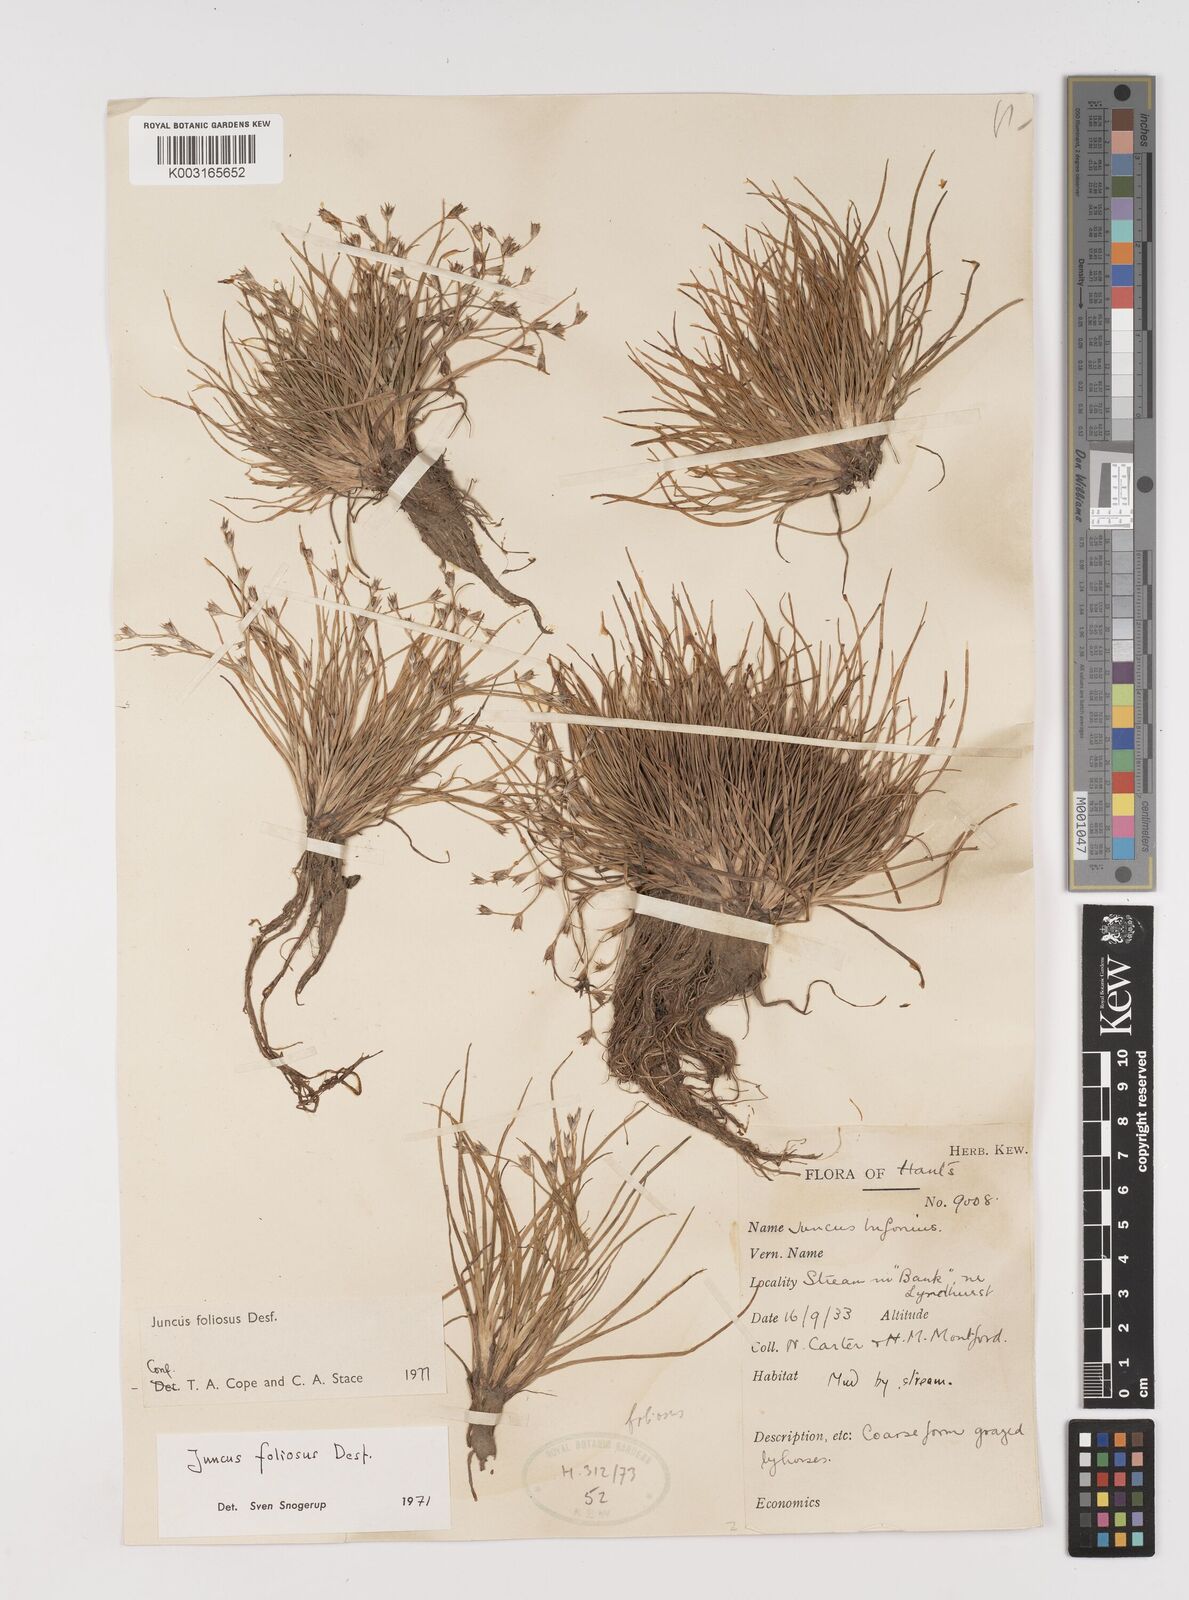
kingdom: Plantae
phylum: Tracheophyta
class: Liliopsida
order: Poales
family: Juncaceae
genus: Juncus
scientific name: Juncus foliosus
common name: Leafy rush
